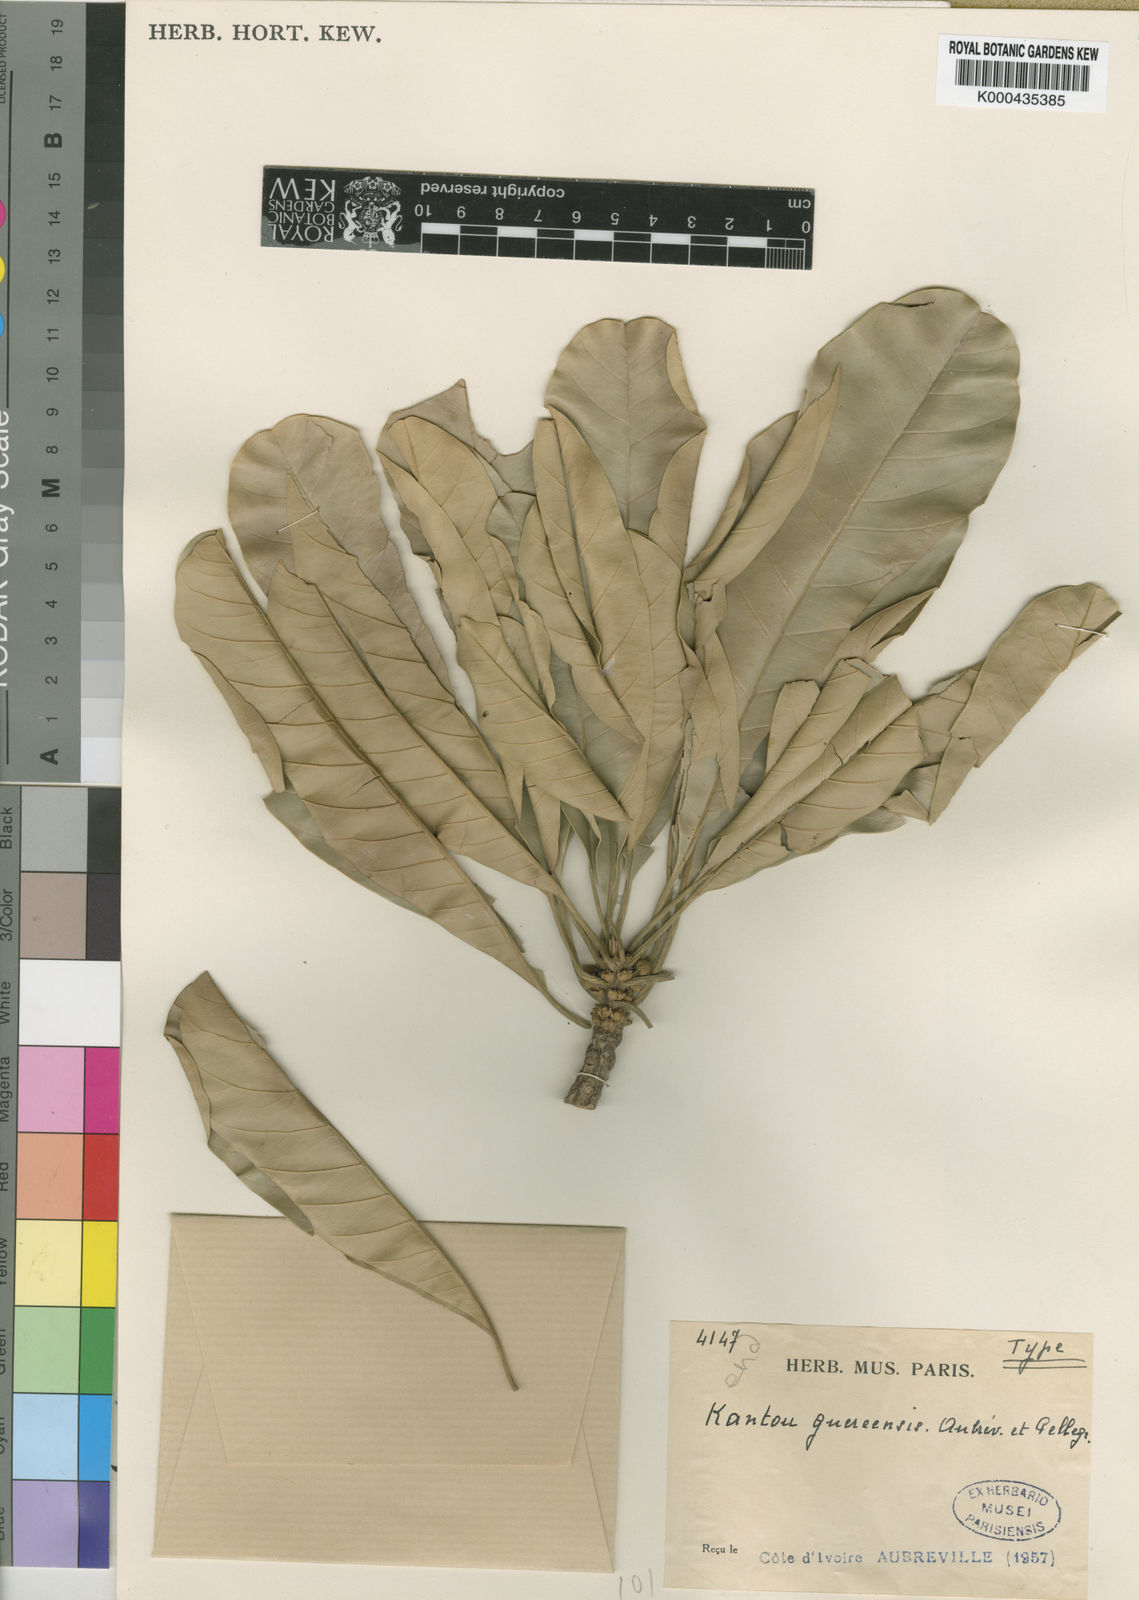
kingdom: Plantae
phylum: Tracheophyta
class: Magnoliopsida
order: Ericales
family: Sapotaceae
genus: Inhambanella
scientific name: Inhambanella
